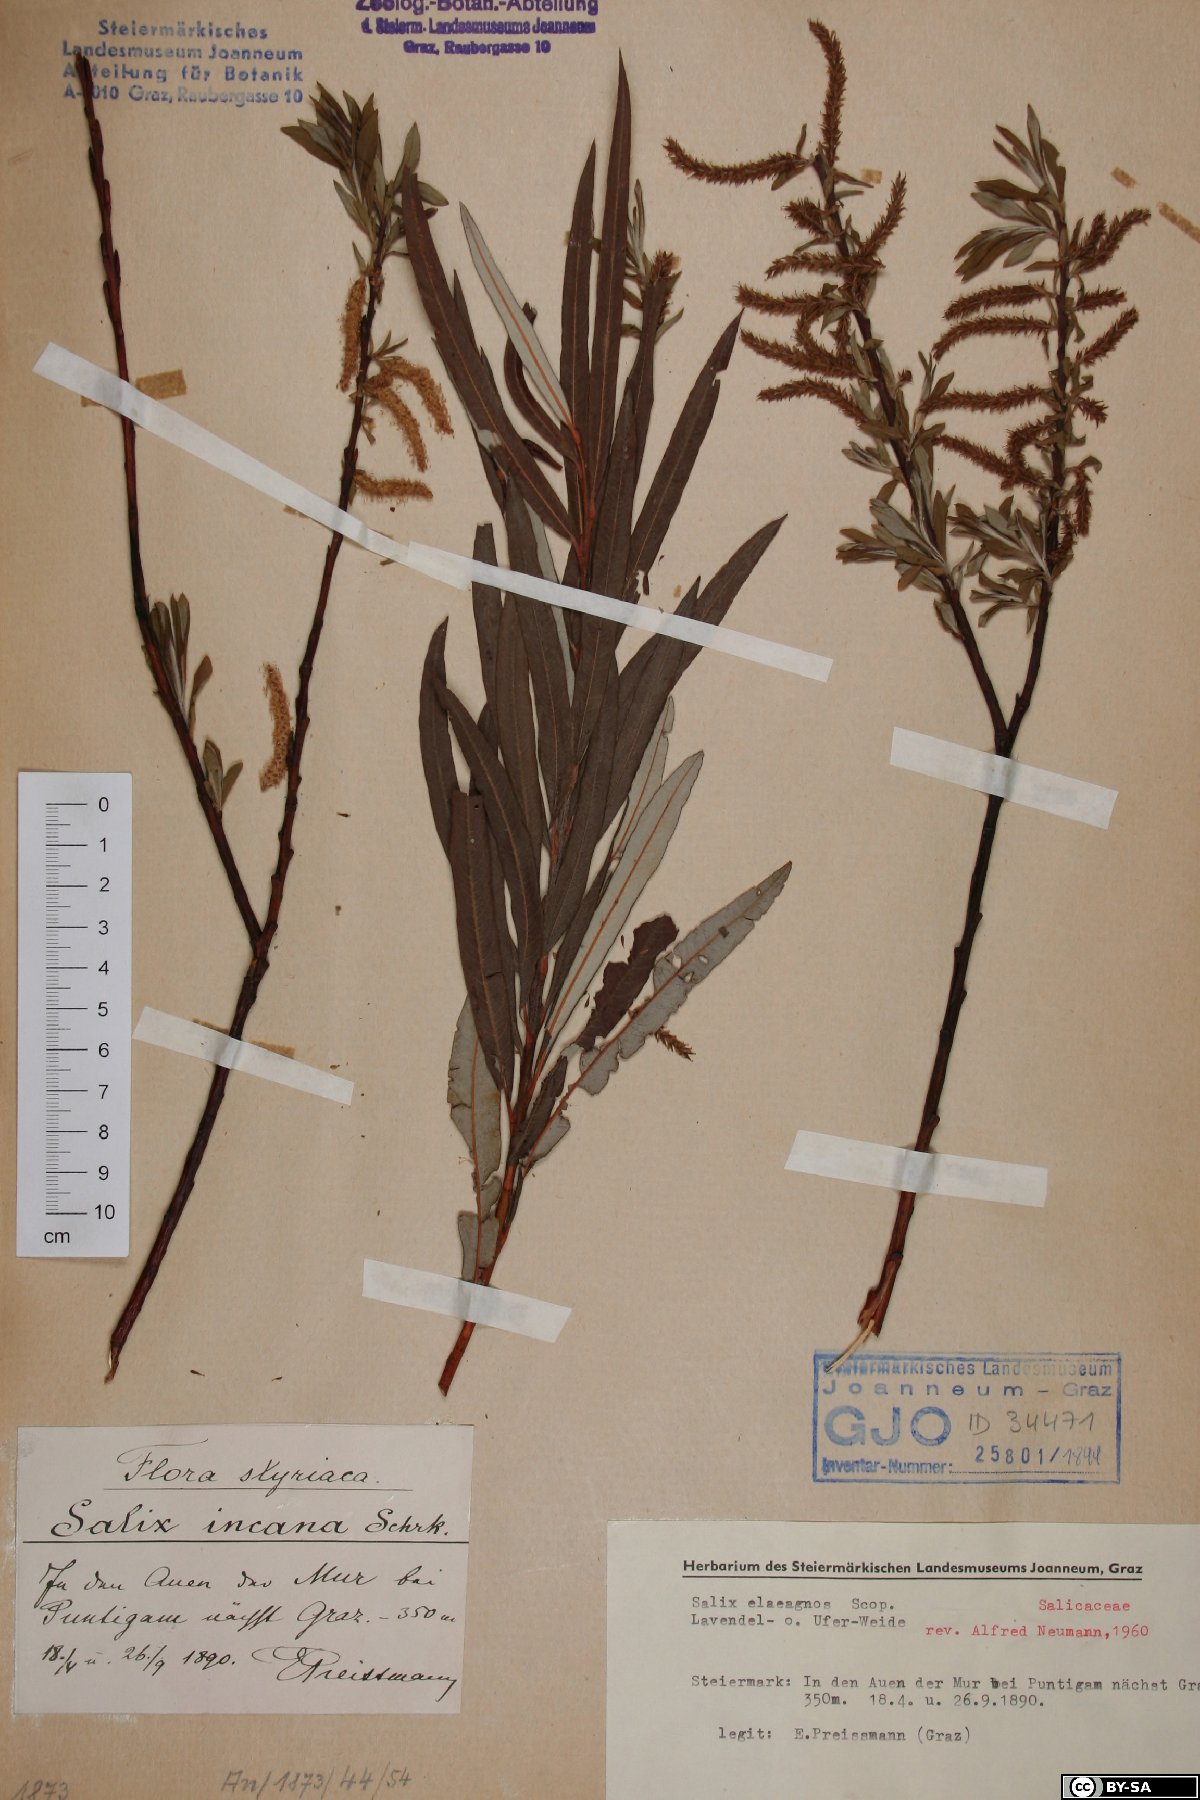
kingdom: Plantae
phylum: Tracheophyta
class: Magnoliopsida
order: Malpighiales
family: Salicaceae
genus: Salix
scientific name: Salix eleagnos
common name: Elaeagnus willow
